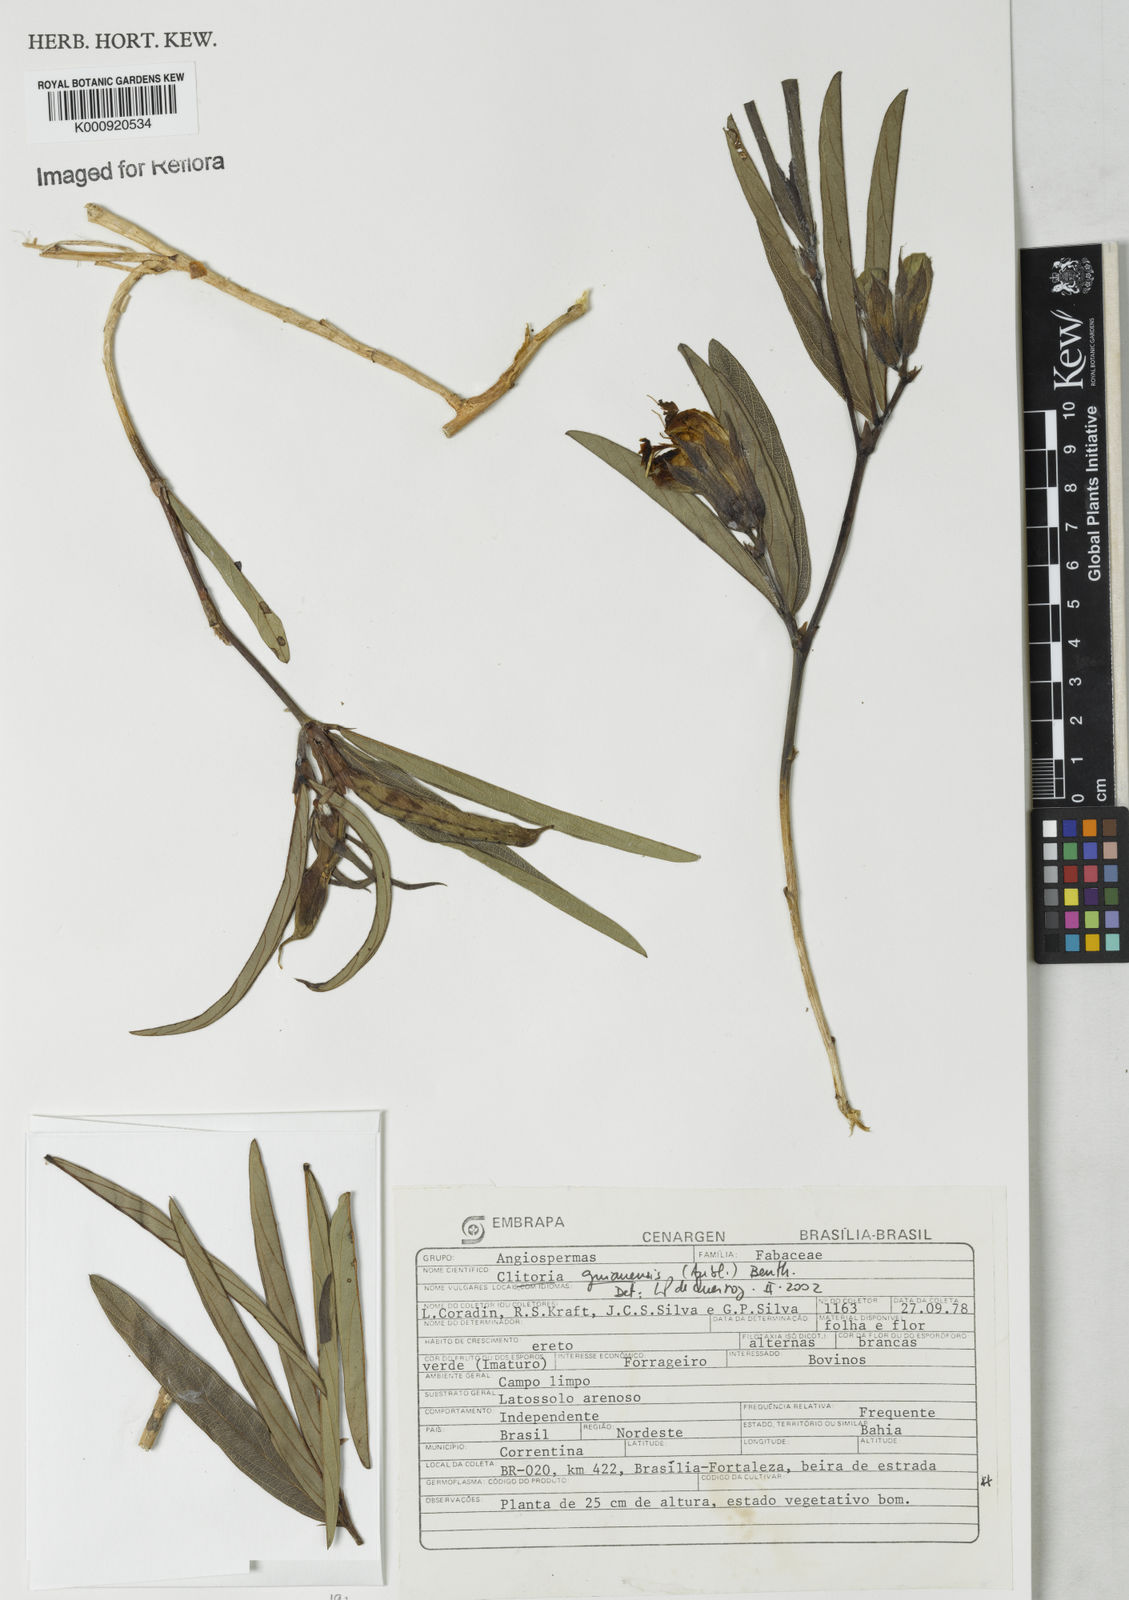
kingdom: Plantae
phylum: Tracheophyta
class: Magnoliopsida
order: Fabales
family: Fabaceae
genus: Clitoria
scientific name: Clitoria guianensis
